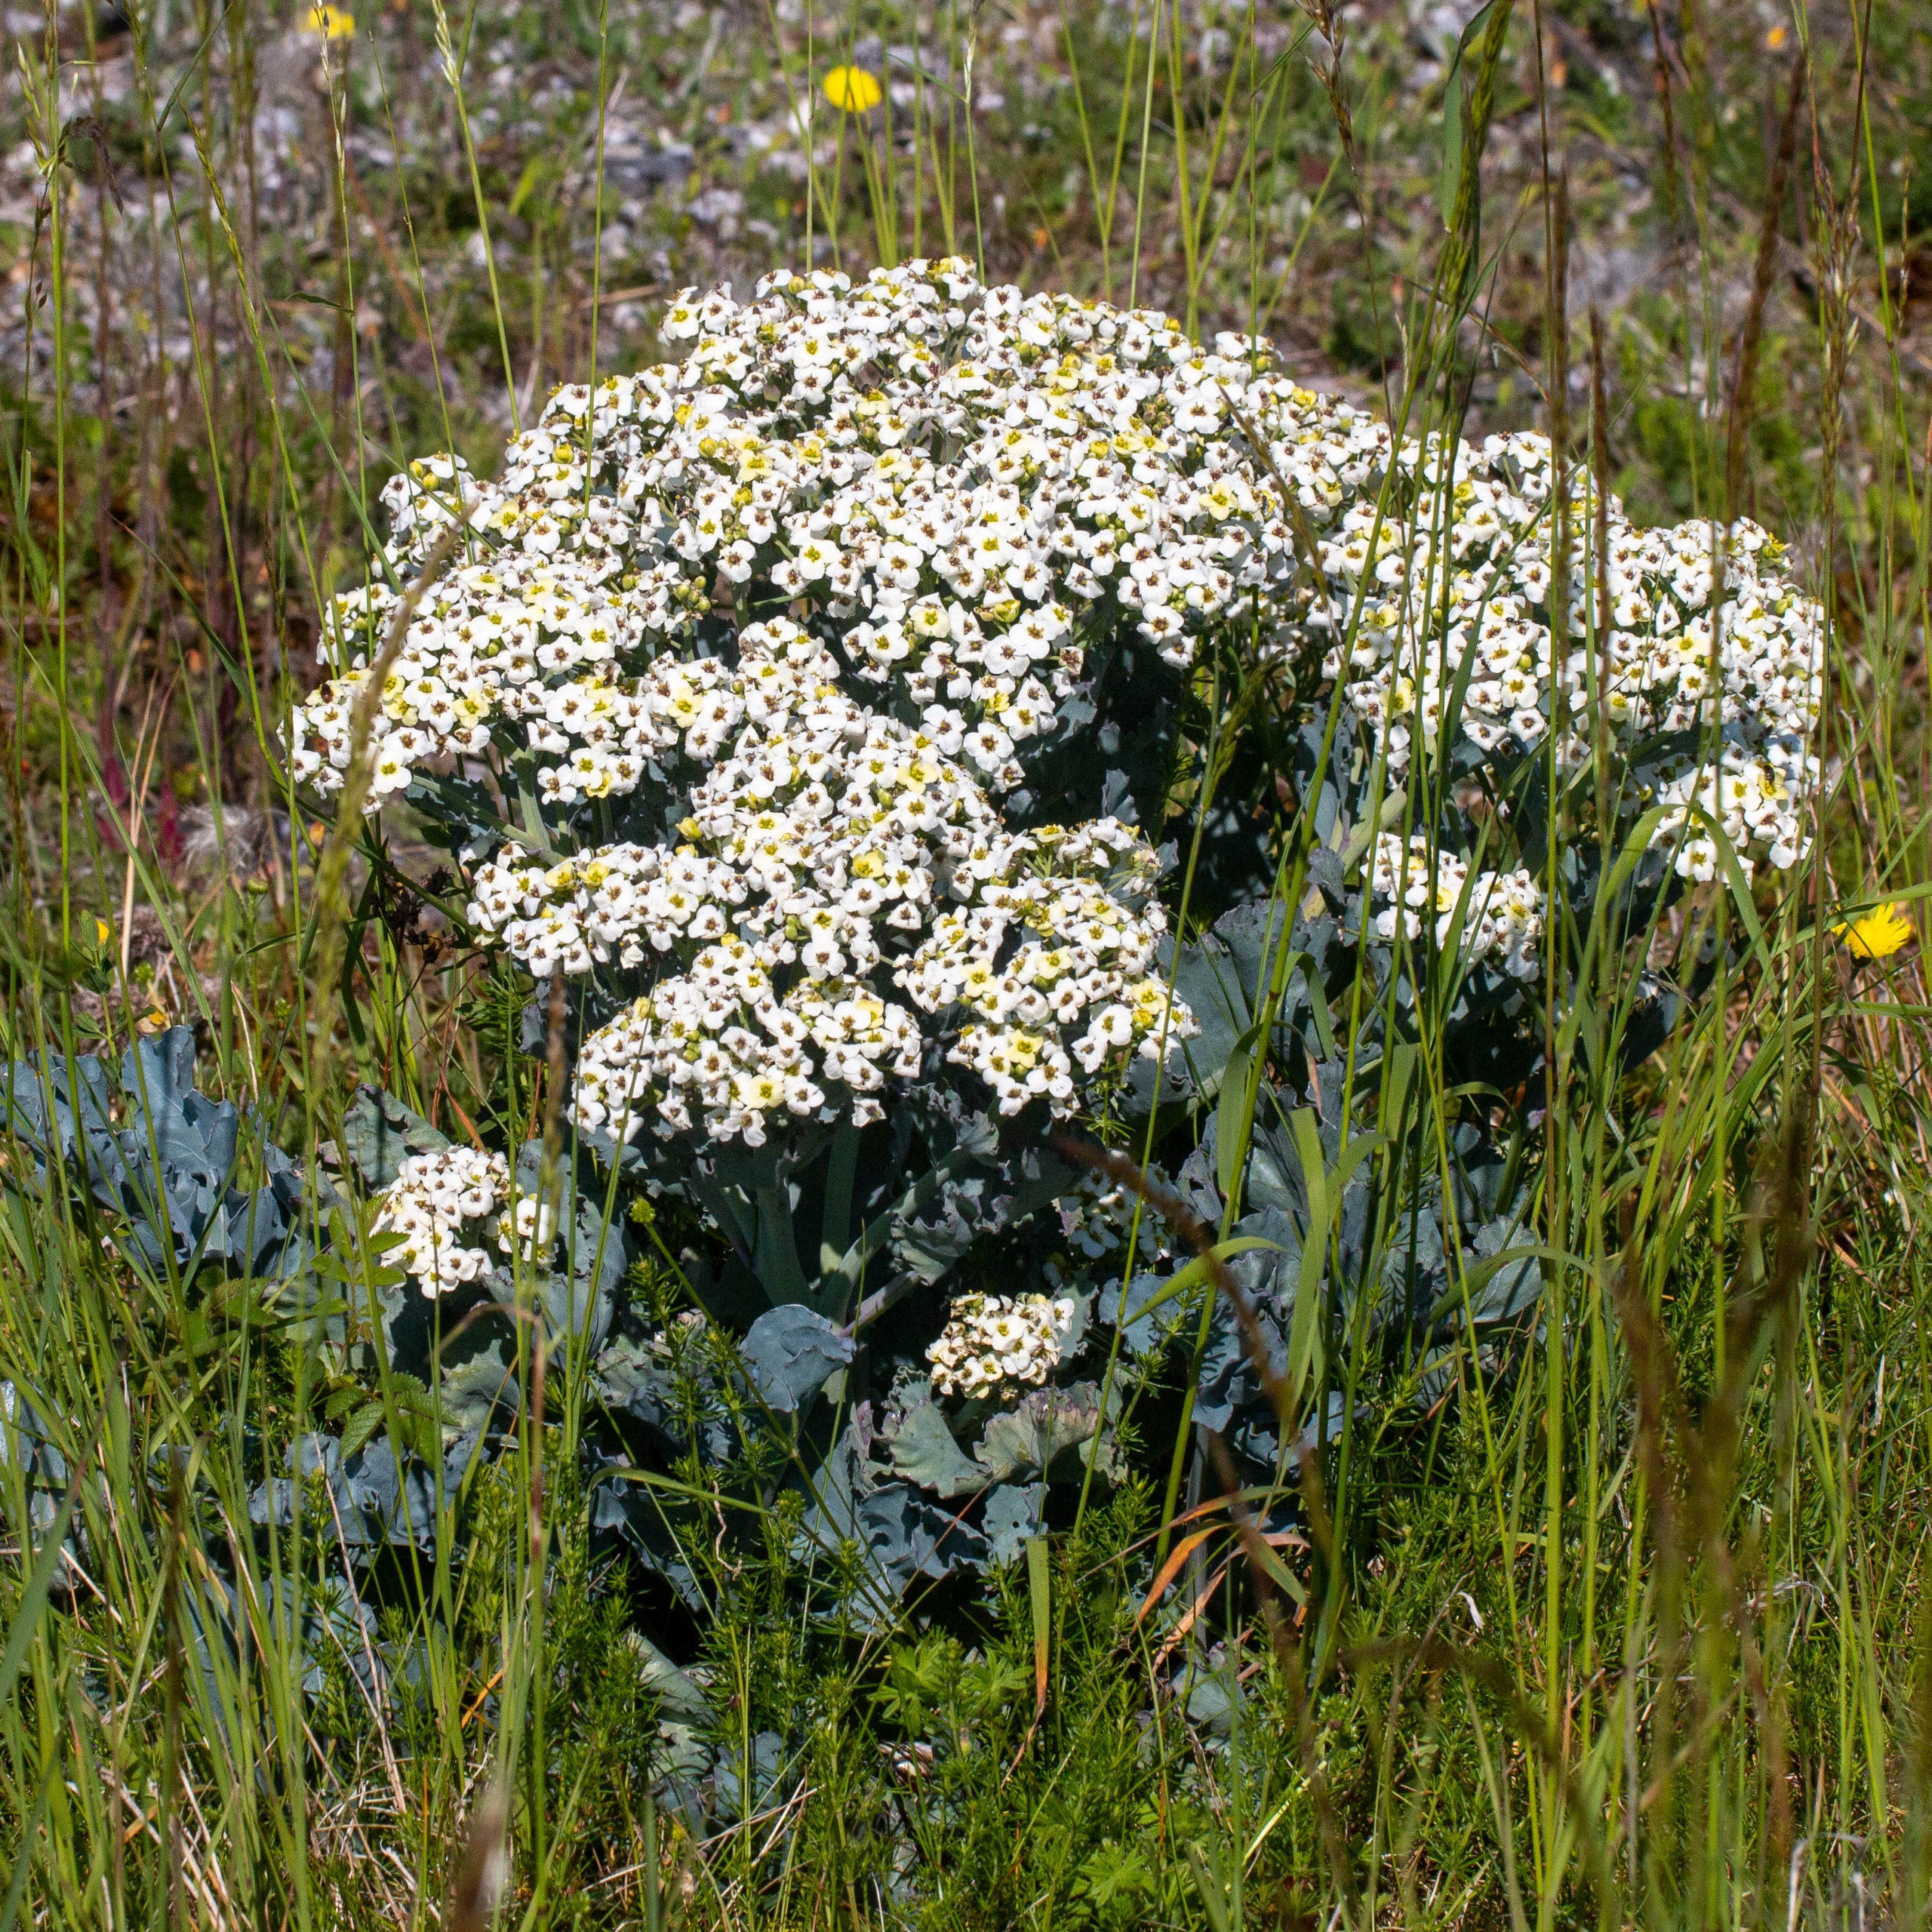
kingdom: Plantae
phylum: Tracheophyta
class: Magnoliopsida
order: Brassicales
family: Brassicaceae
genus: Crambe
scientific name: Crambe maritima
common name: Strandkål
